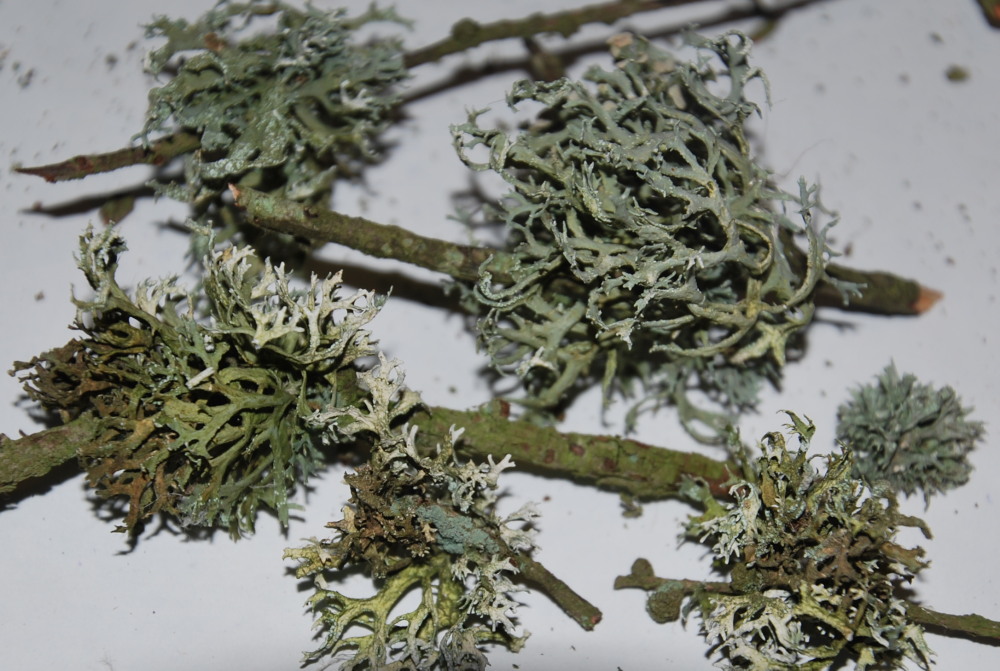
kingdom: Fungi
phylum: Ascomycota
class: Lecanoromycetes
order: Lecanorales
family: Parmeliaceae
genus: Evernia
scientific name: Evernia prunastri
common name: almindelig slåenlav
